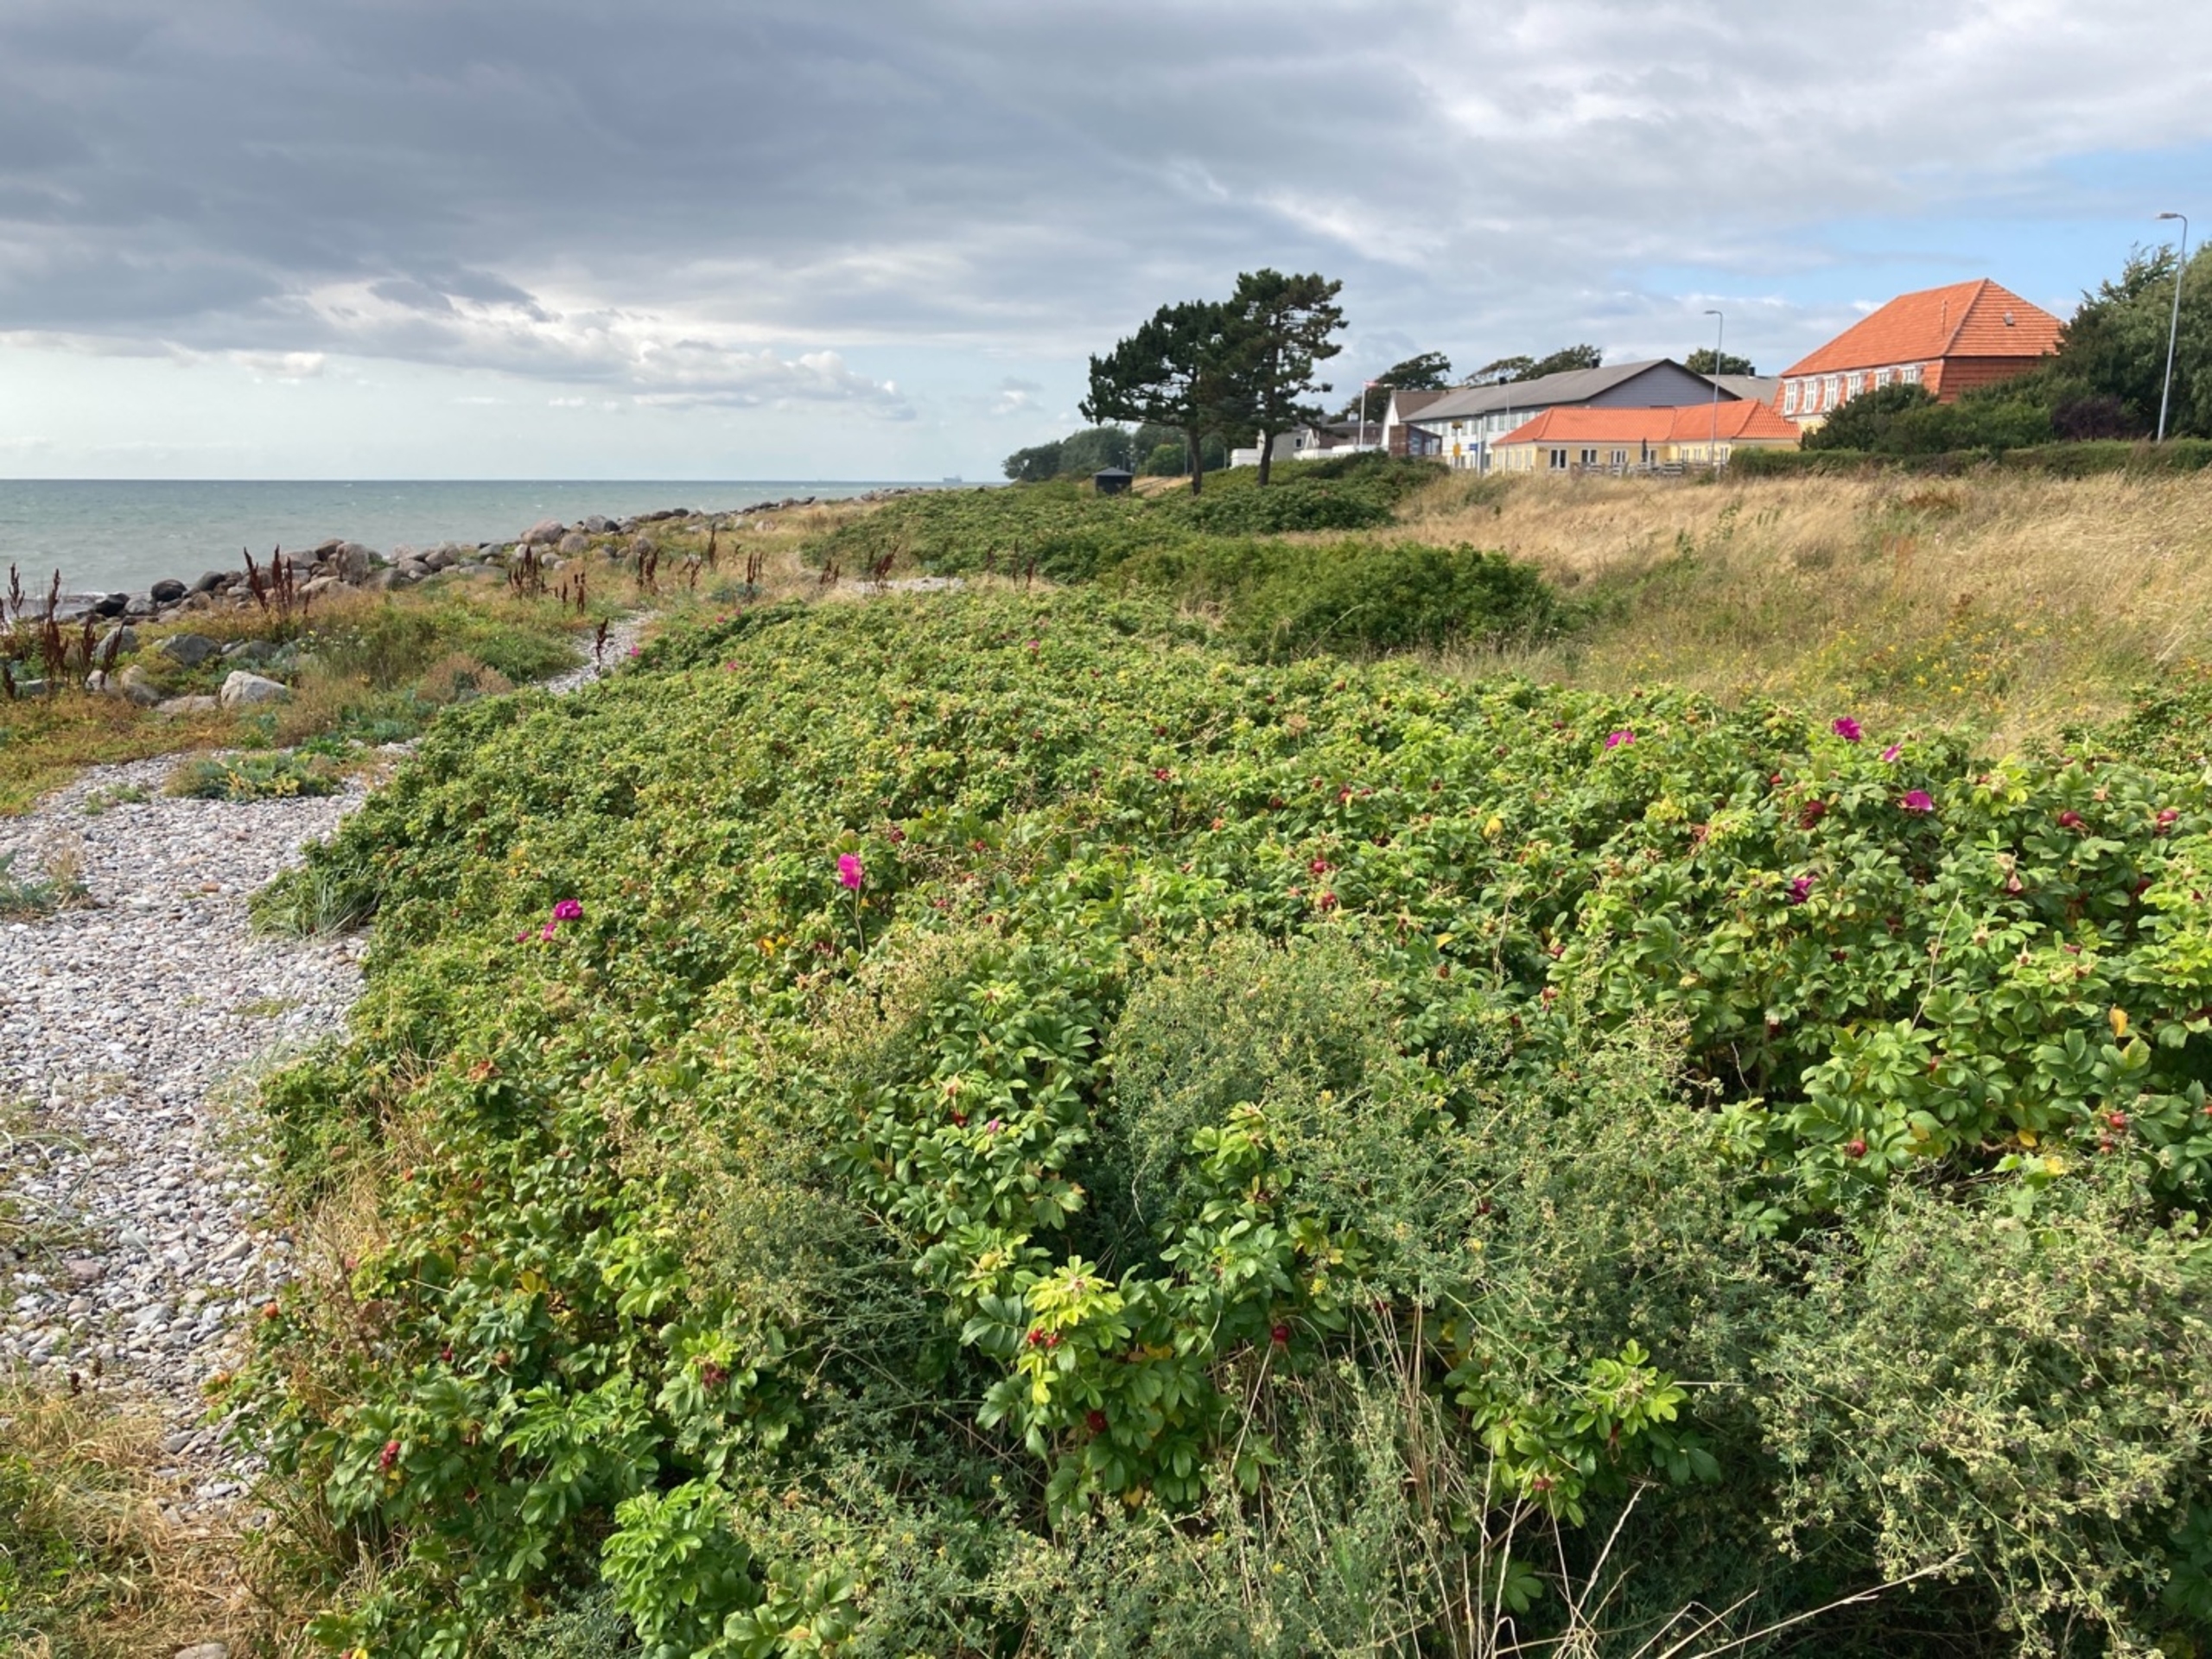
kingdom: Plantae
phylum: Tracheophyta
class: Magnoliopsida
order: Rosales
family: Rosaceae
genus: Rosa
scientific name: Rosa rugosa
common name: Rynket rose
